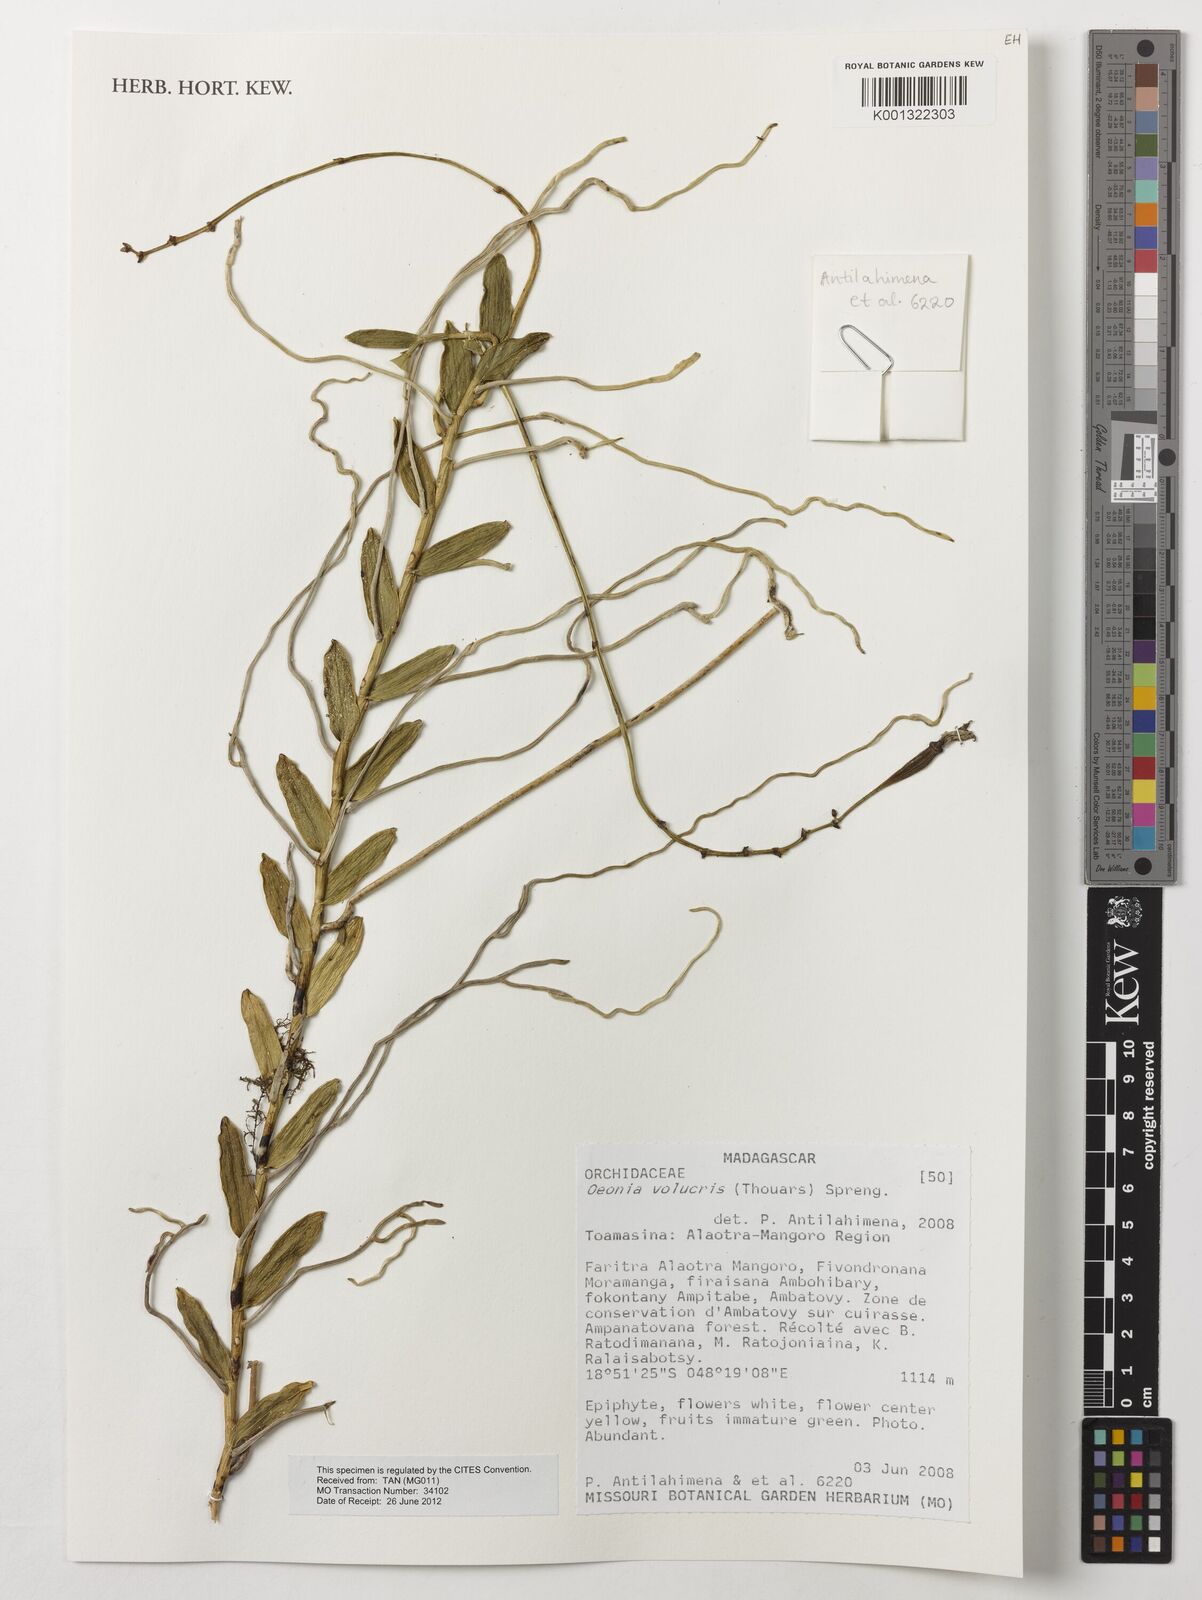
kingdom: Plantae
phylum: Tracheophyta
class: Liliopsida
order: Asparagales
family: Orchidaceae
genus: Oeonia
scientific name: Oeonia volucris
